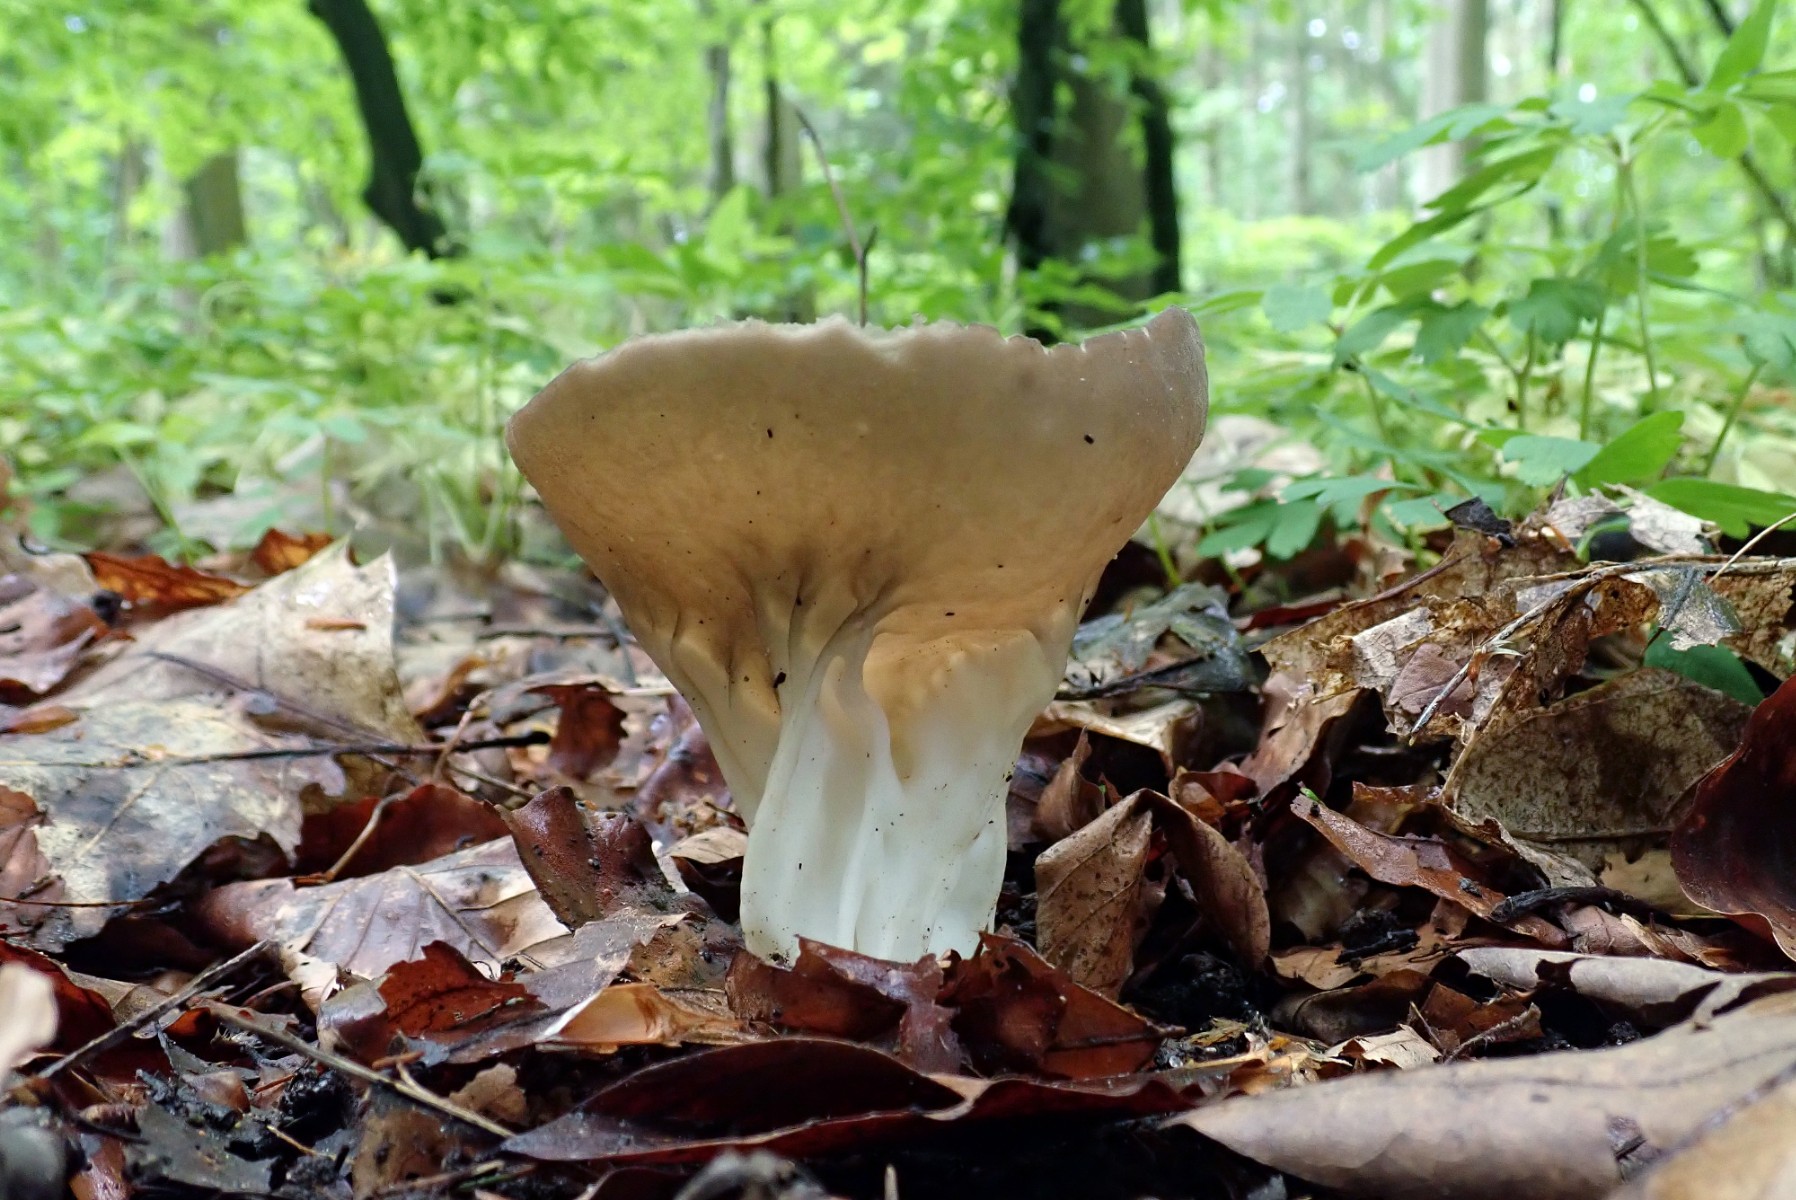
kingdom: Fungi
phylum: Ascomycota
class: Pezizomycetes
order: Pezizales
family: Helvellaceae
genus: Helvella
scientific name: Helvella acetabulum
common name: pokal-foldhat
